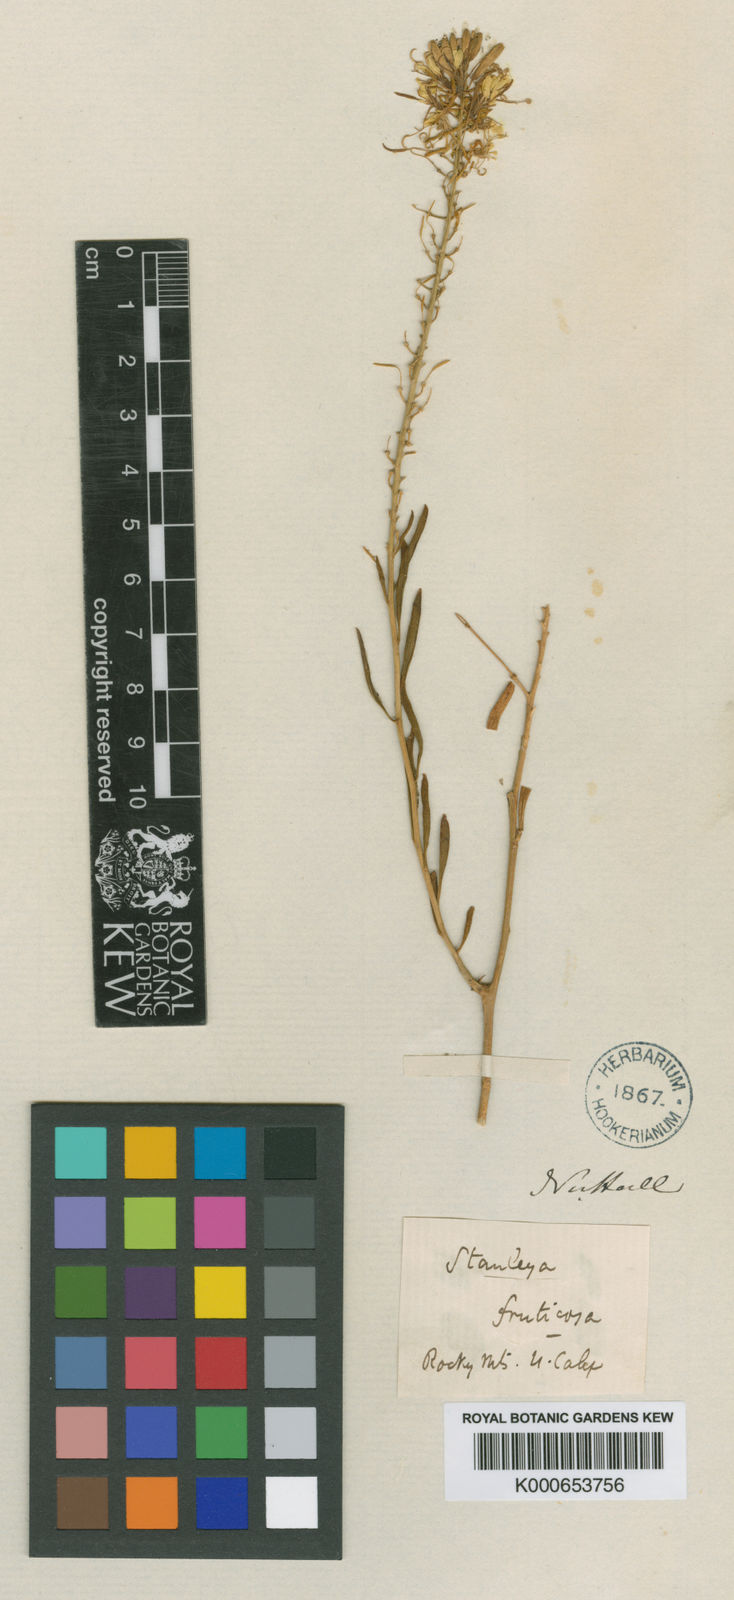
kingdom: Plantae
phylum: Tracheophyta
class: Magnoliopsida
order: Brassicales
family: Brassicaceae
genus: Stanleya
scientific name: Stanleya pinnata
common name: Prince's-plume
